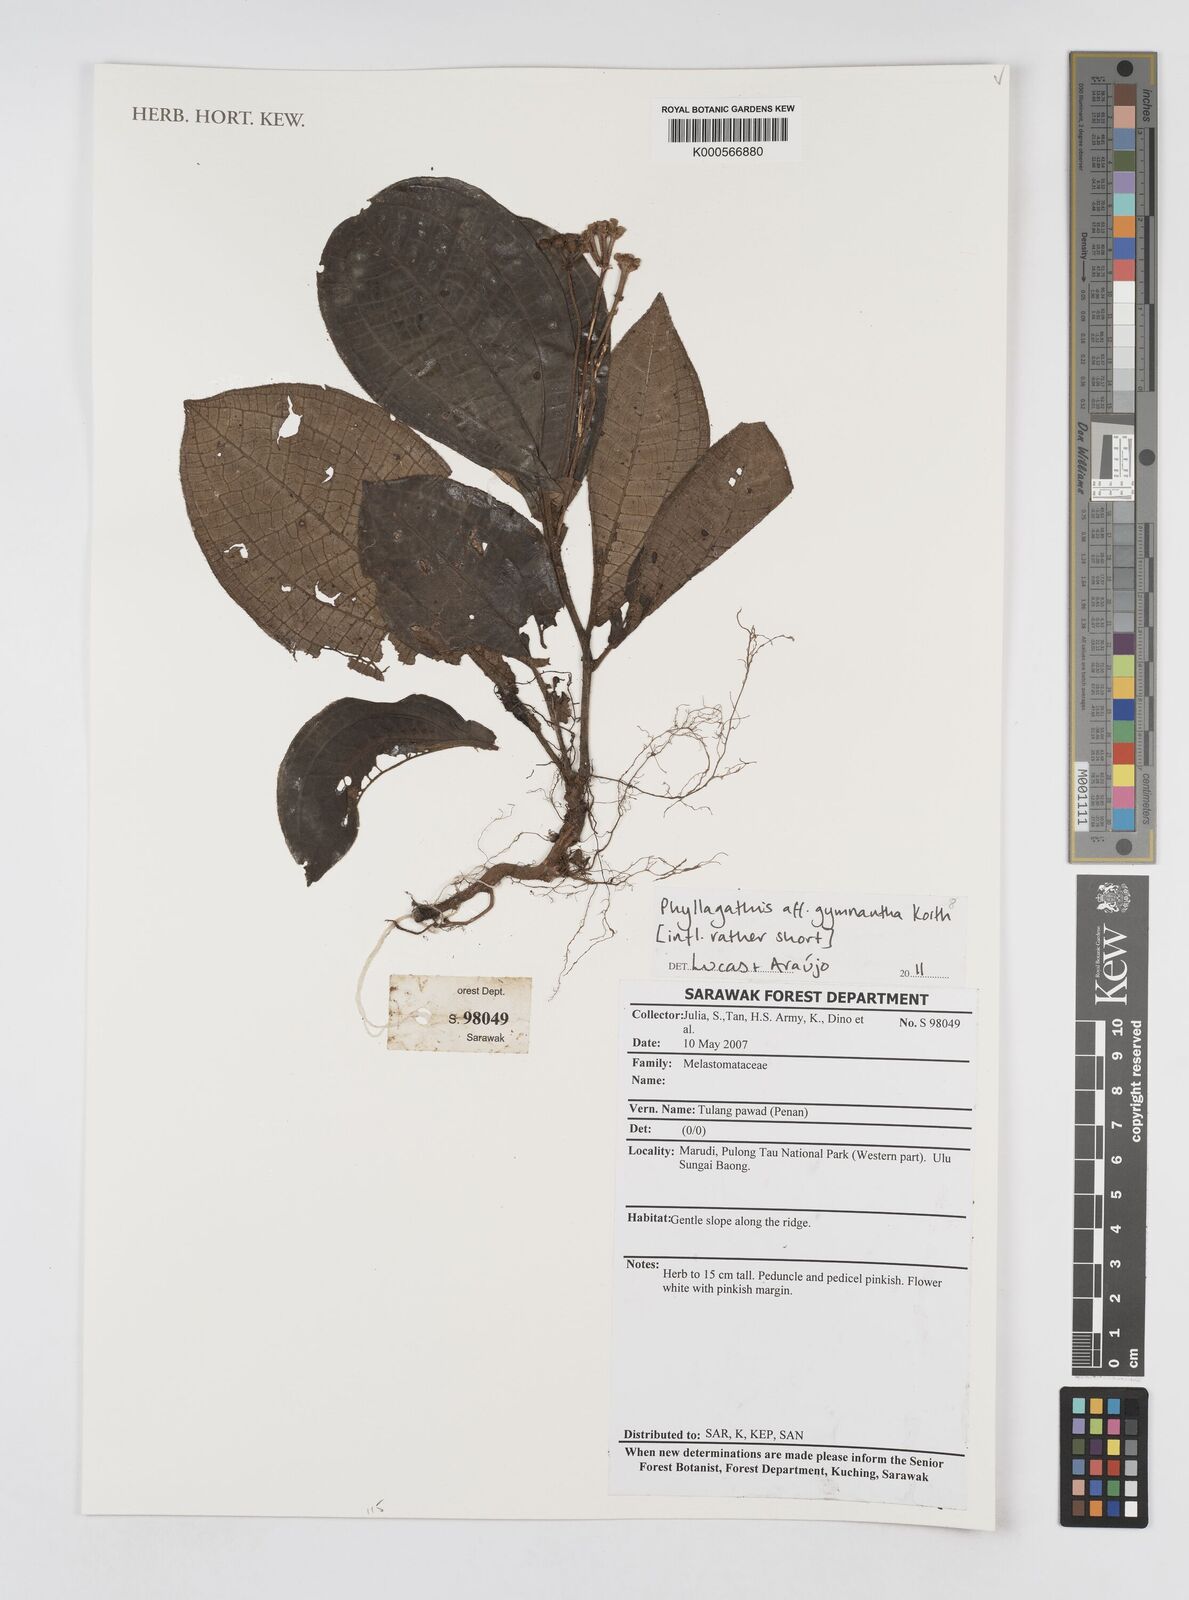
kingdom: Plantae
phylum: Tracheophyta
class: Magnoliopsida
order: Myrtales
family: Melastomataceae
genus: Phyllagathis
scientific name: Phyllagathis gymnantha
